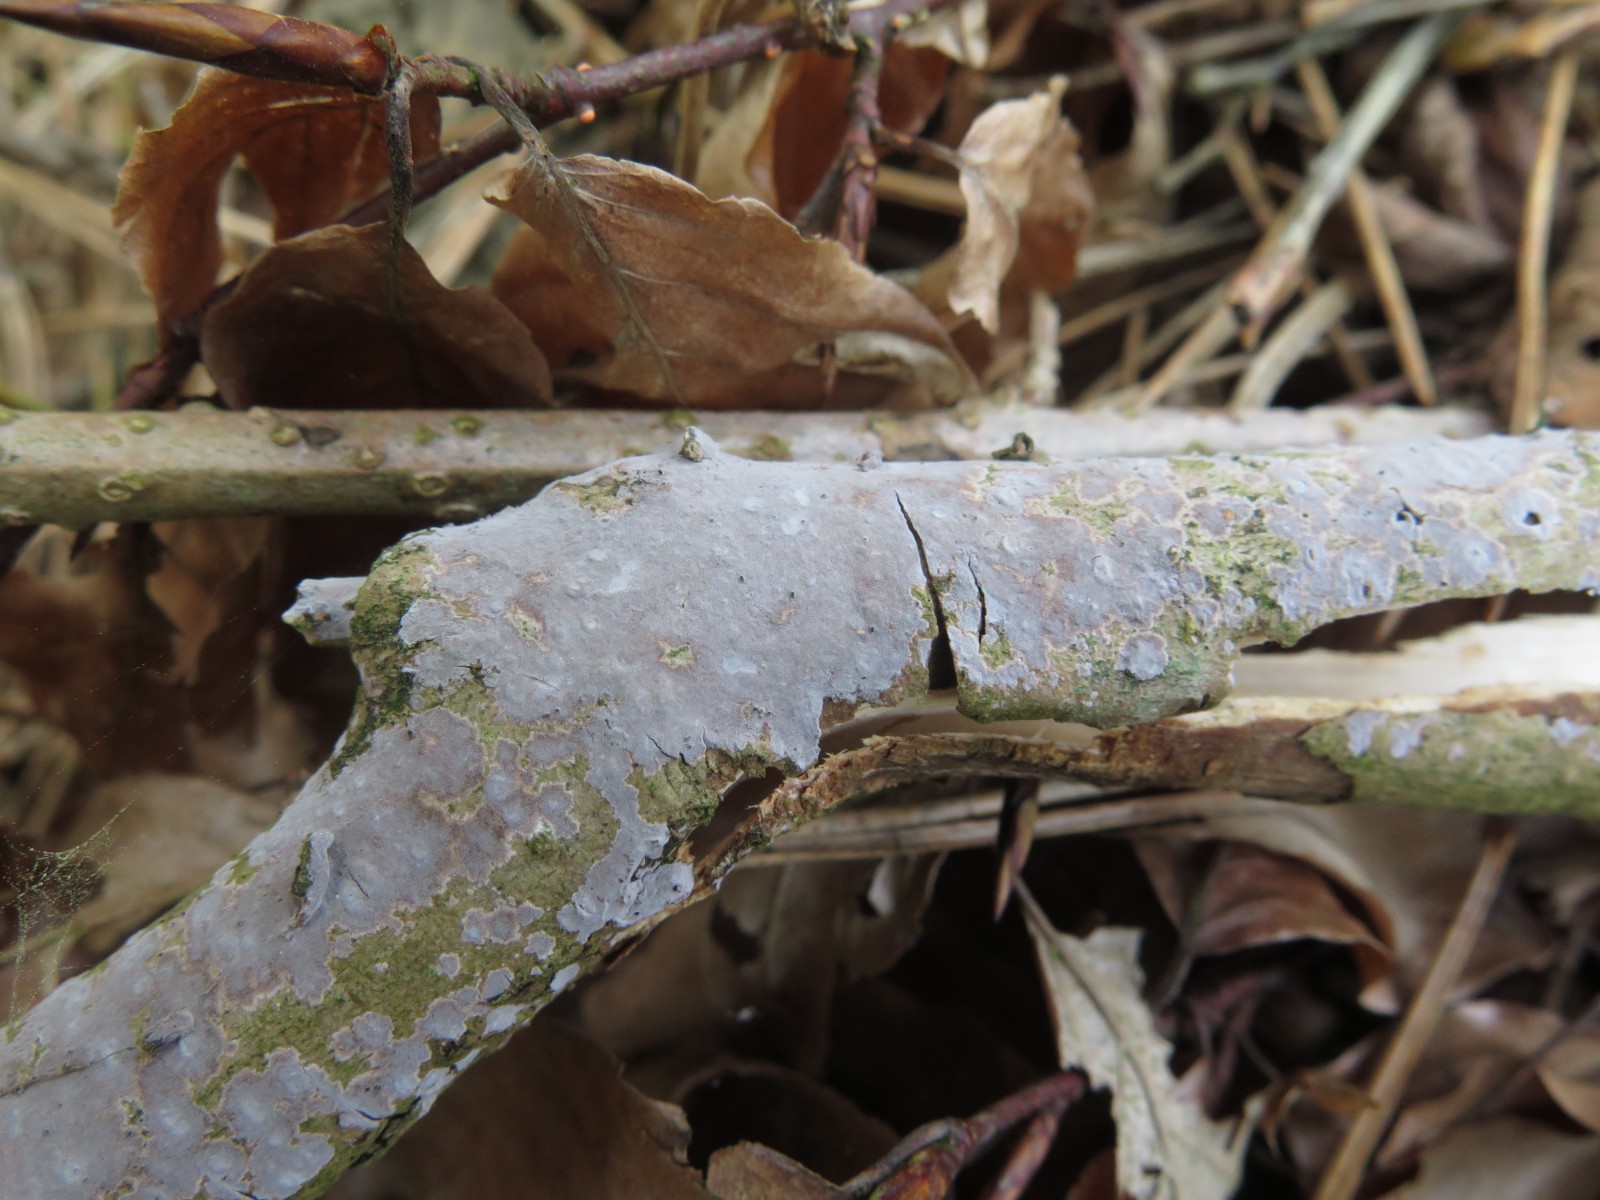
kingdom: Fungi
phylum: Basidiomycota
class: Agaricomycetes
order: Russulales
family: Peniophoraceae
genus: Peniophora
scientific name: Peniophora
